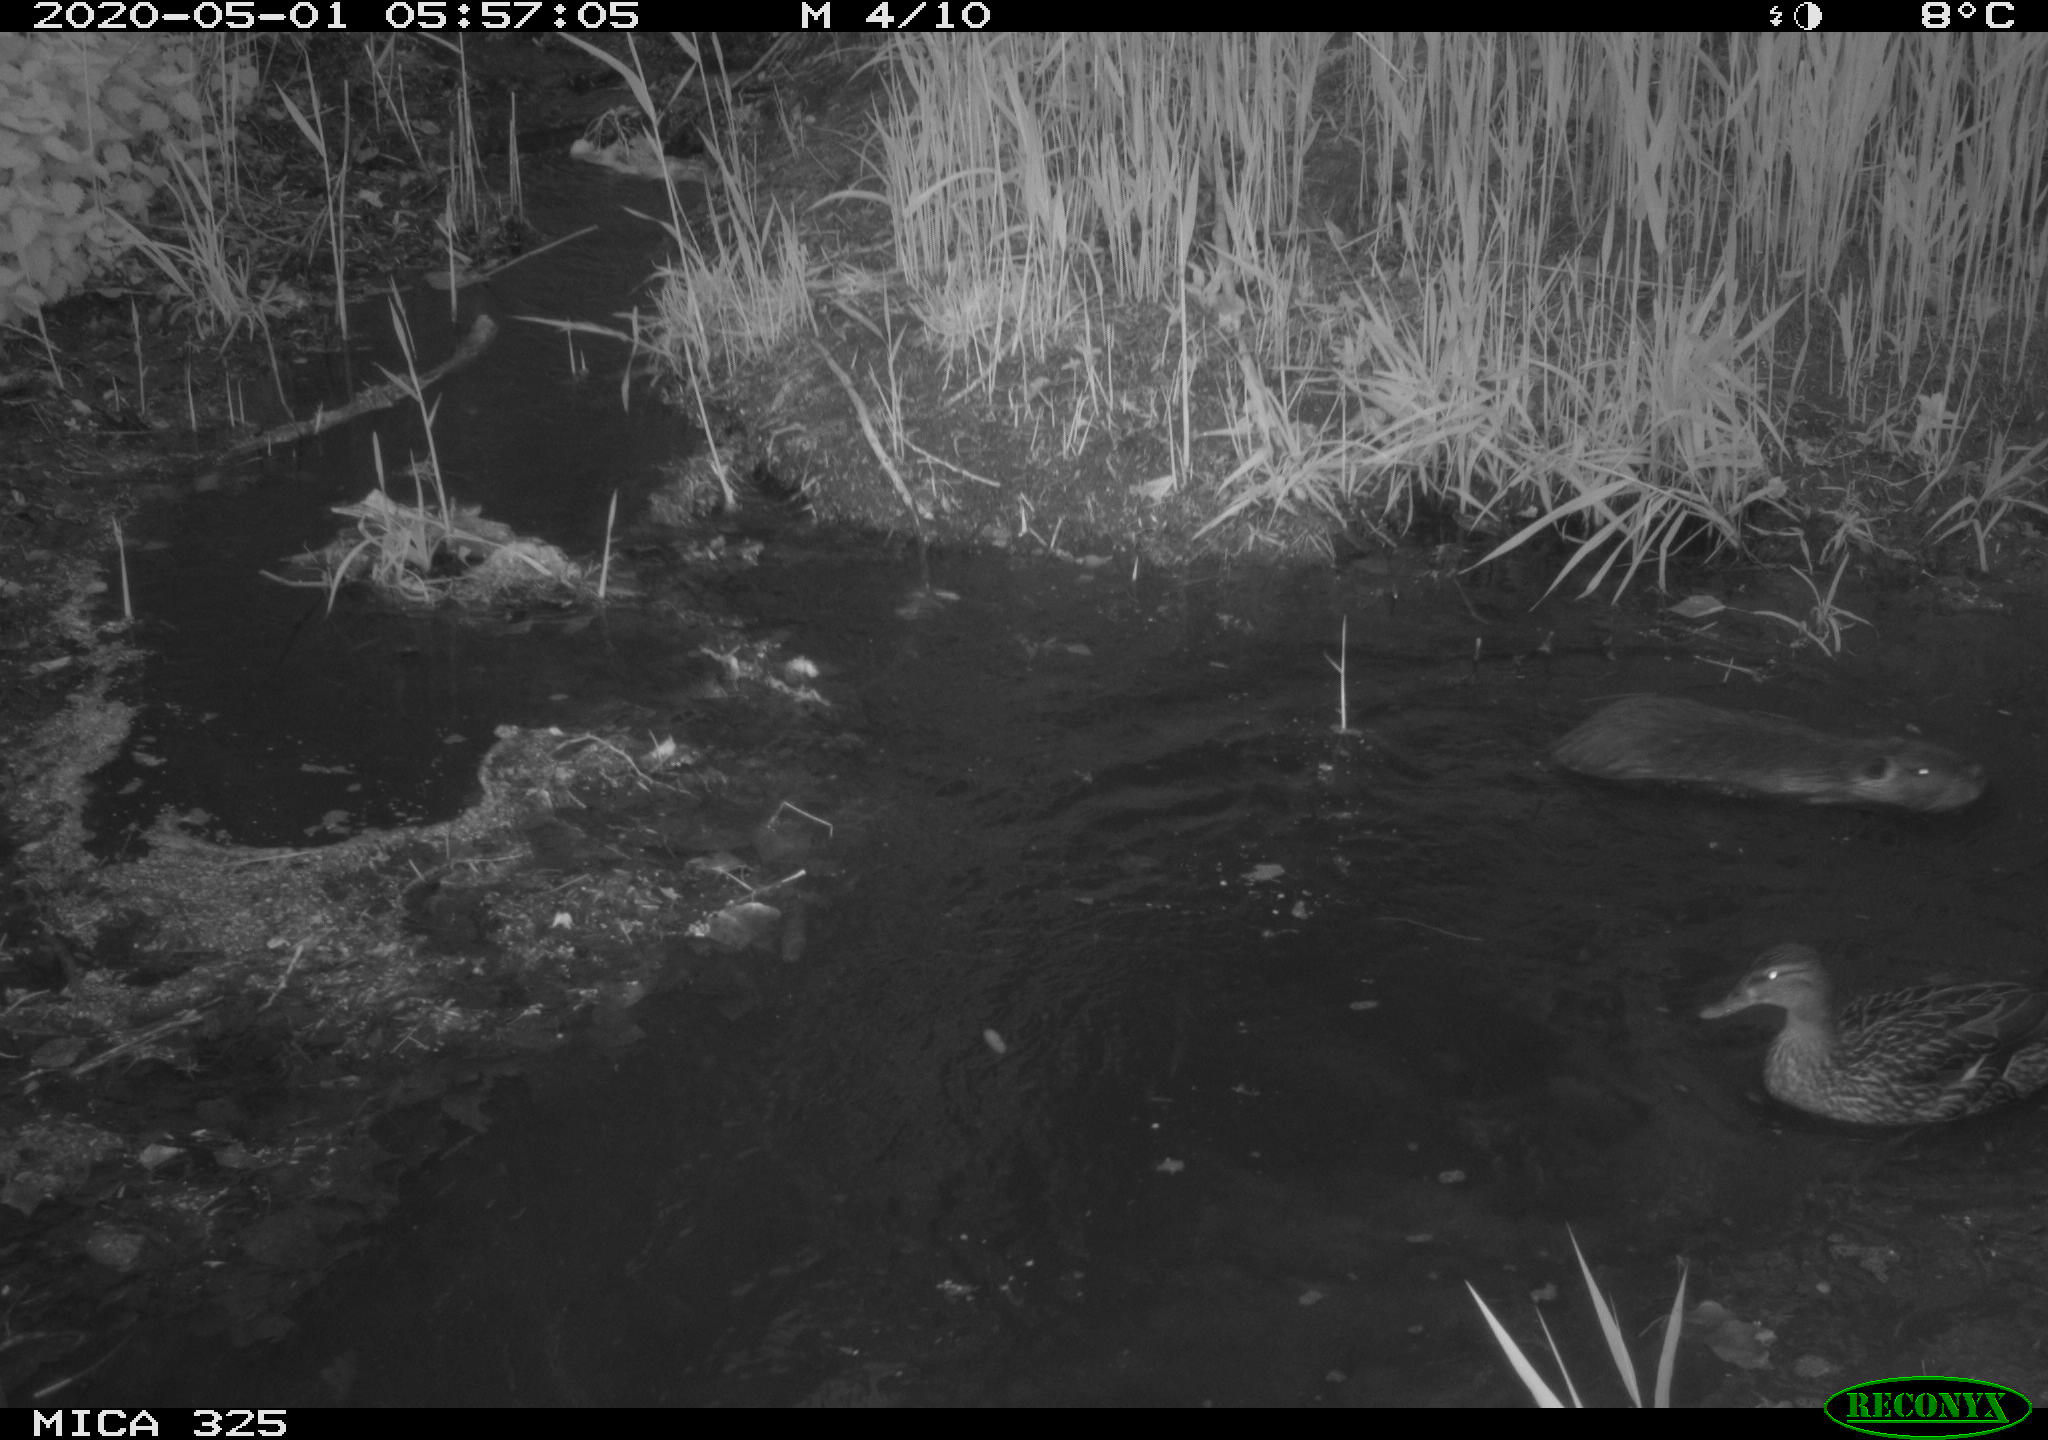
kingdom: Animalia
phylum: Chordata
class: Aves
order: Anseriformes
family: Anatidae
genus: Anas
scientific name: Anas platyrhynchos
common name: Mallard
